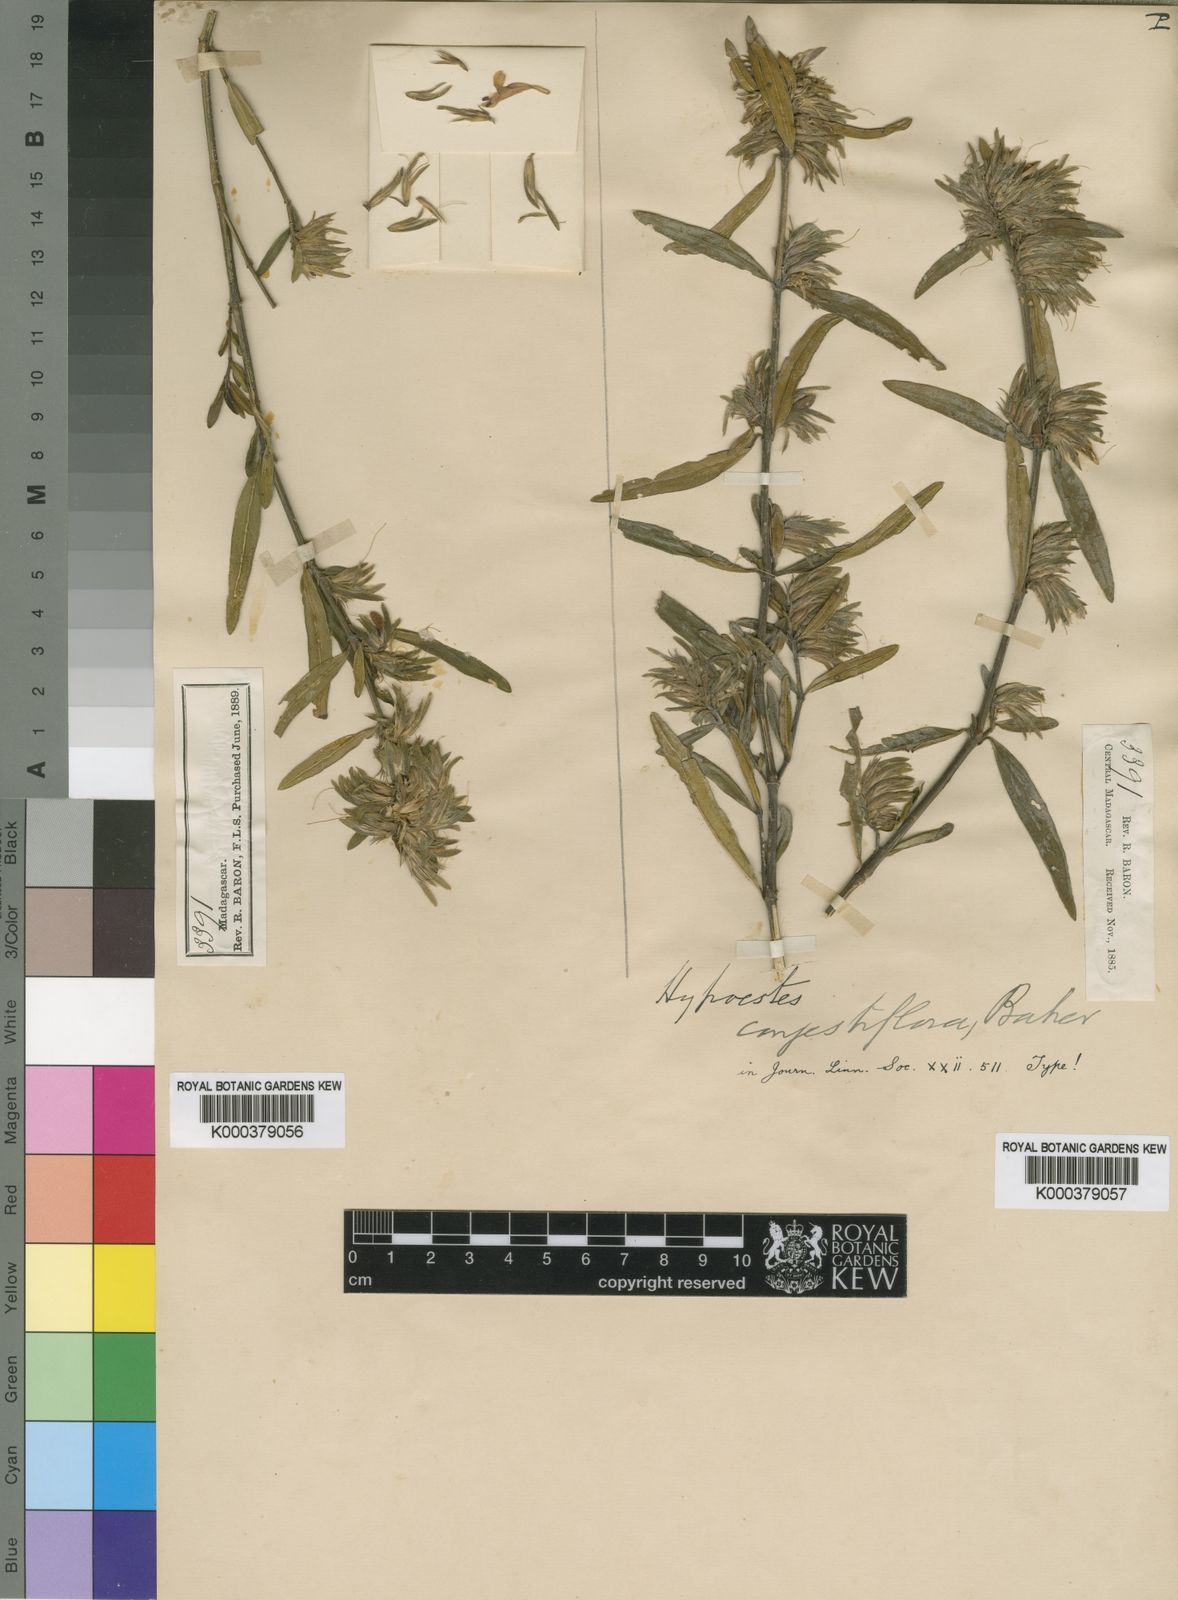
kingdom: Plantae
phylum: Tracheophyta
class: Magnoliopsida
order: Lamiales
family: Acanthaceae
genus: Hypoestes
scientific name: Hypoestes congestiflora
